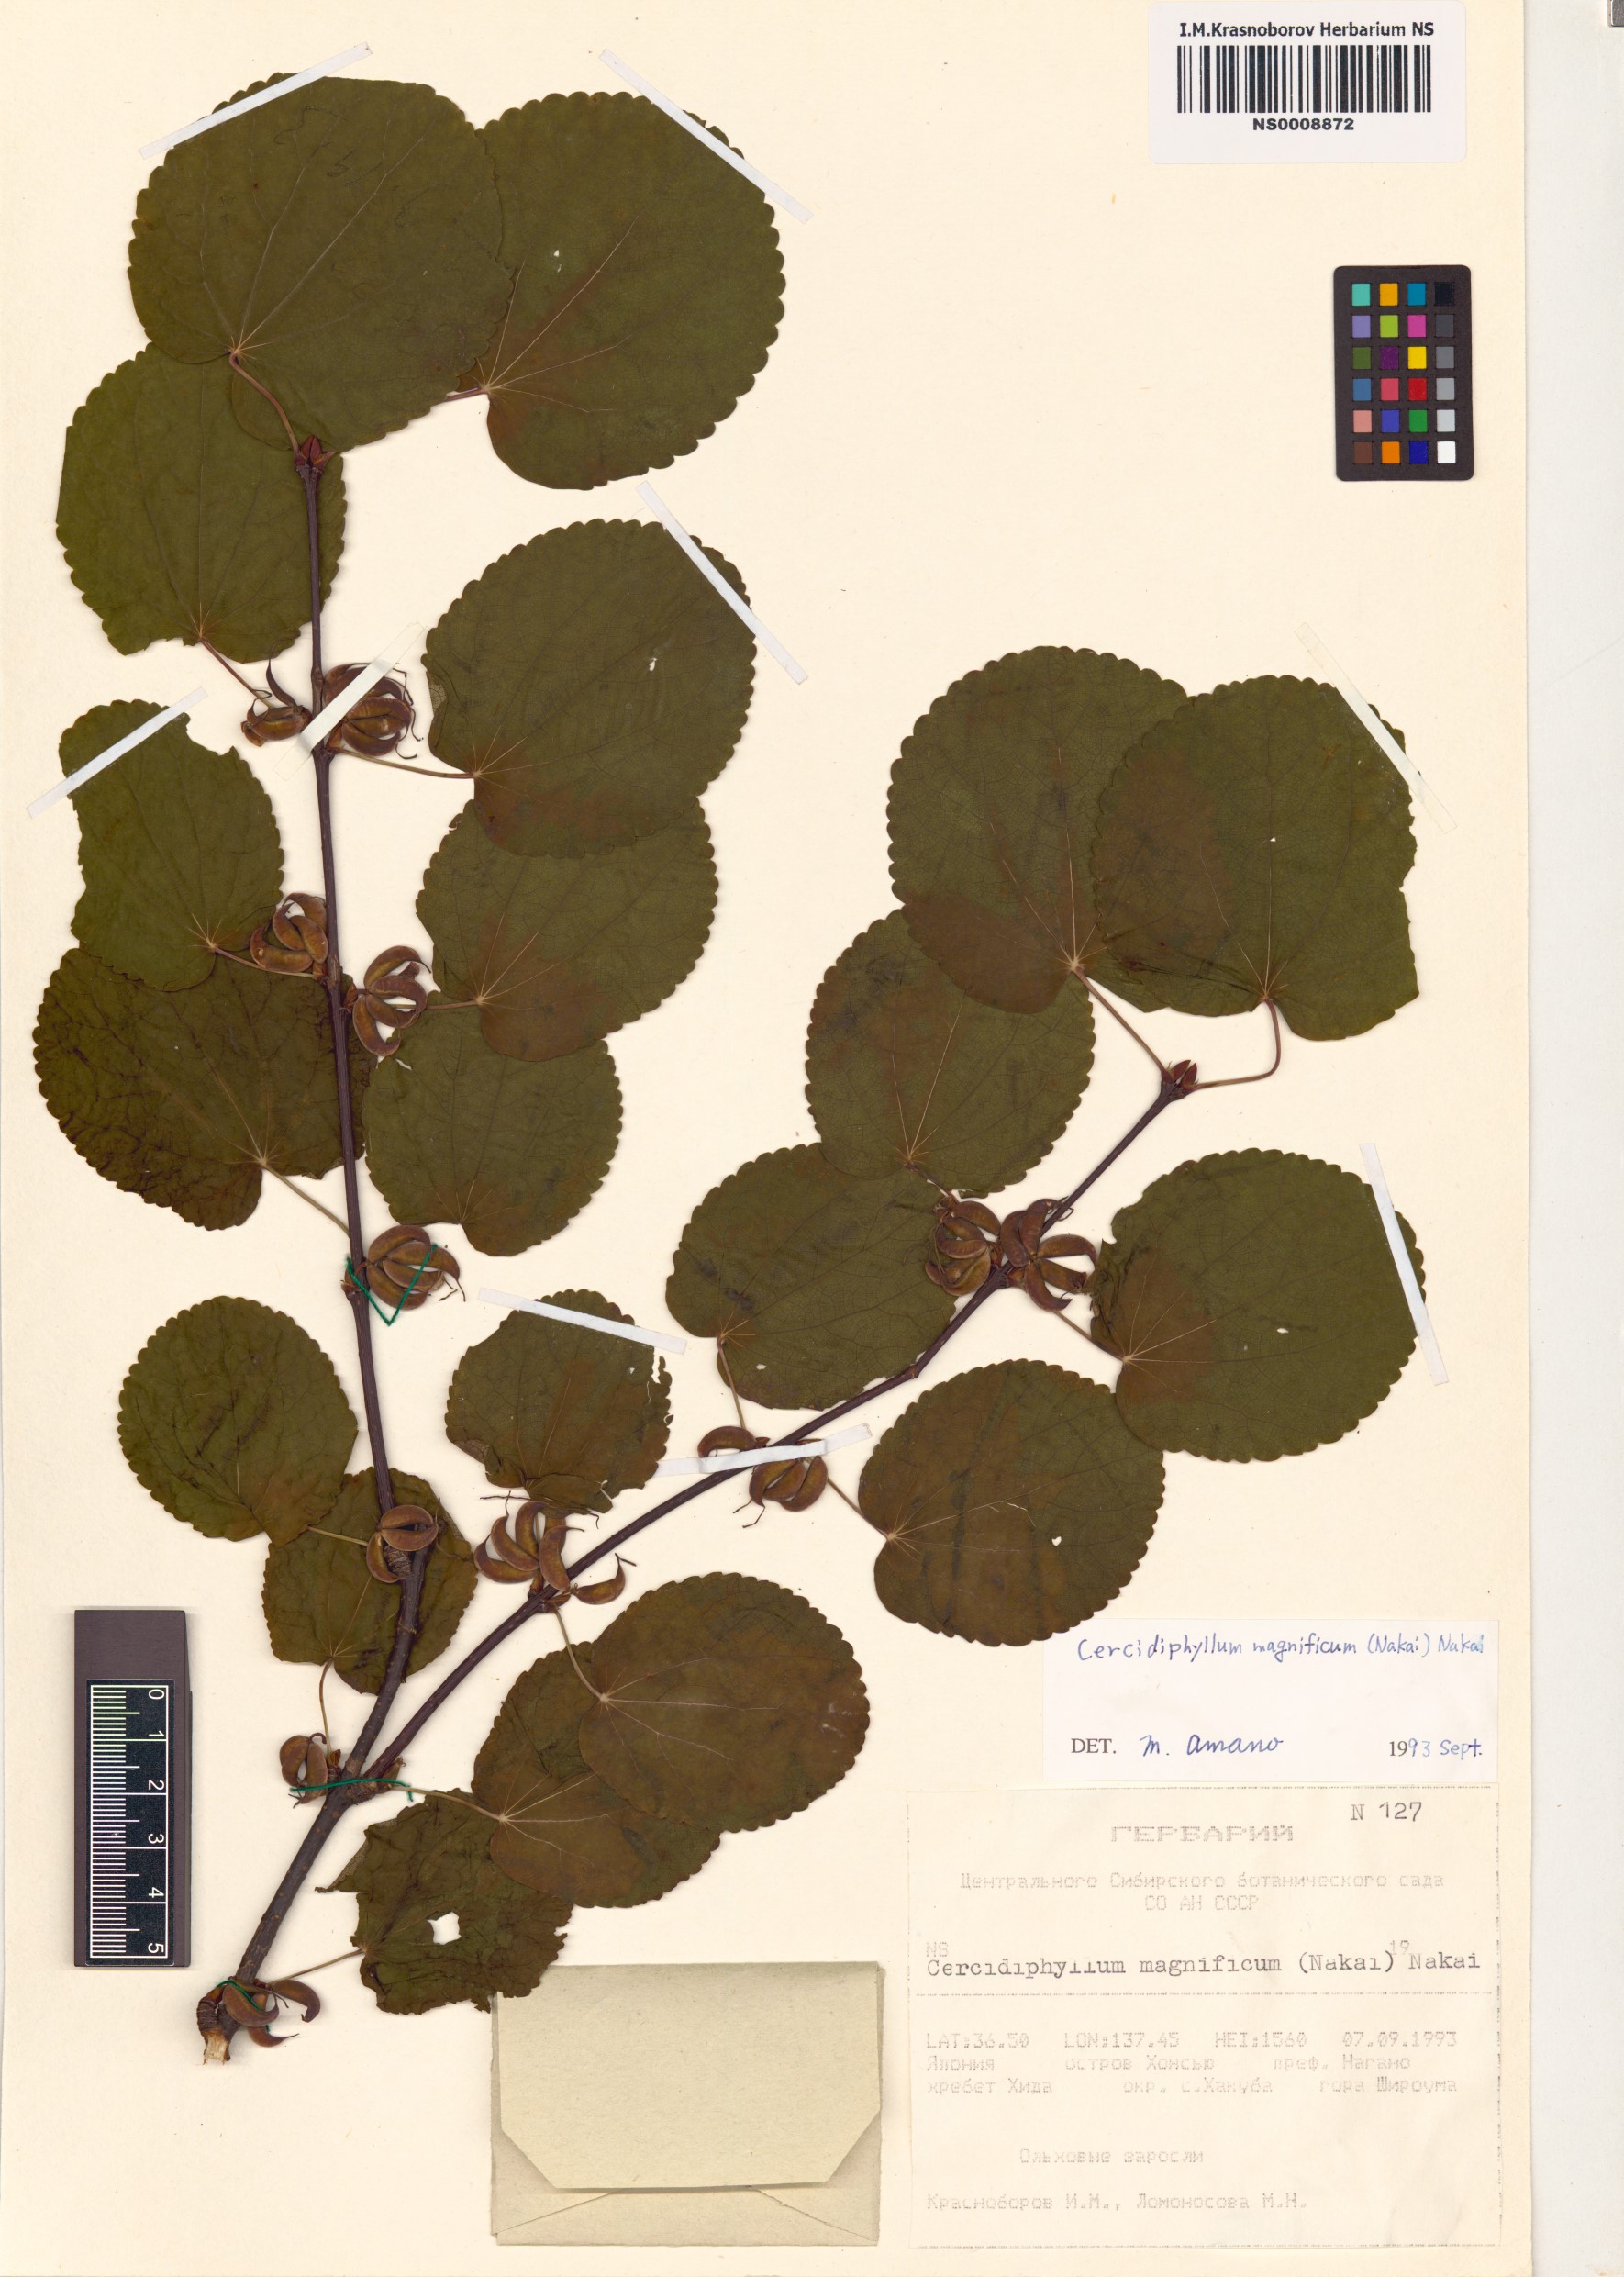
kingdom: Plantae
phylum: Tracheophyta
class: Magnoliopsida
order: Saxifragales
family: Cercidiphyllaceae
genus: Cercidiphyllum
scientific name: Cercidiphyllum magnificum
